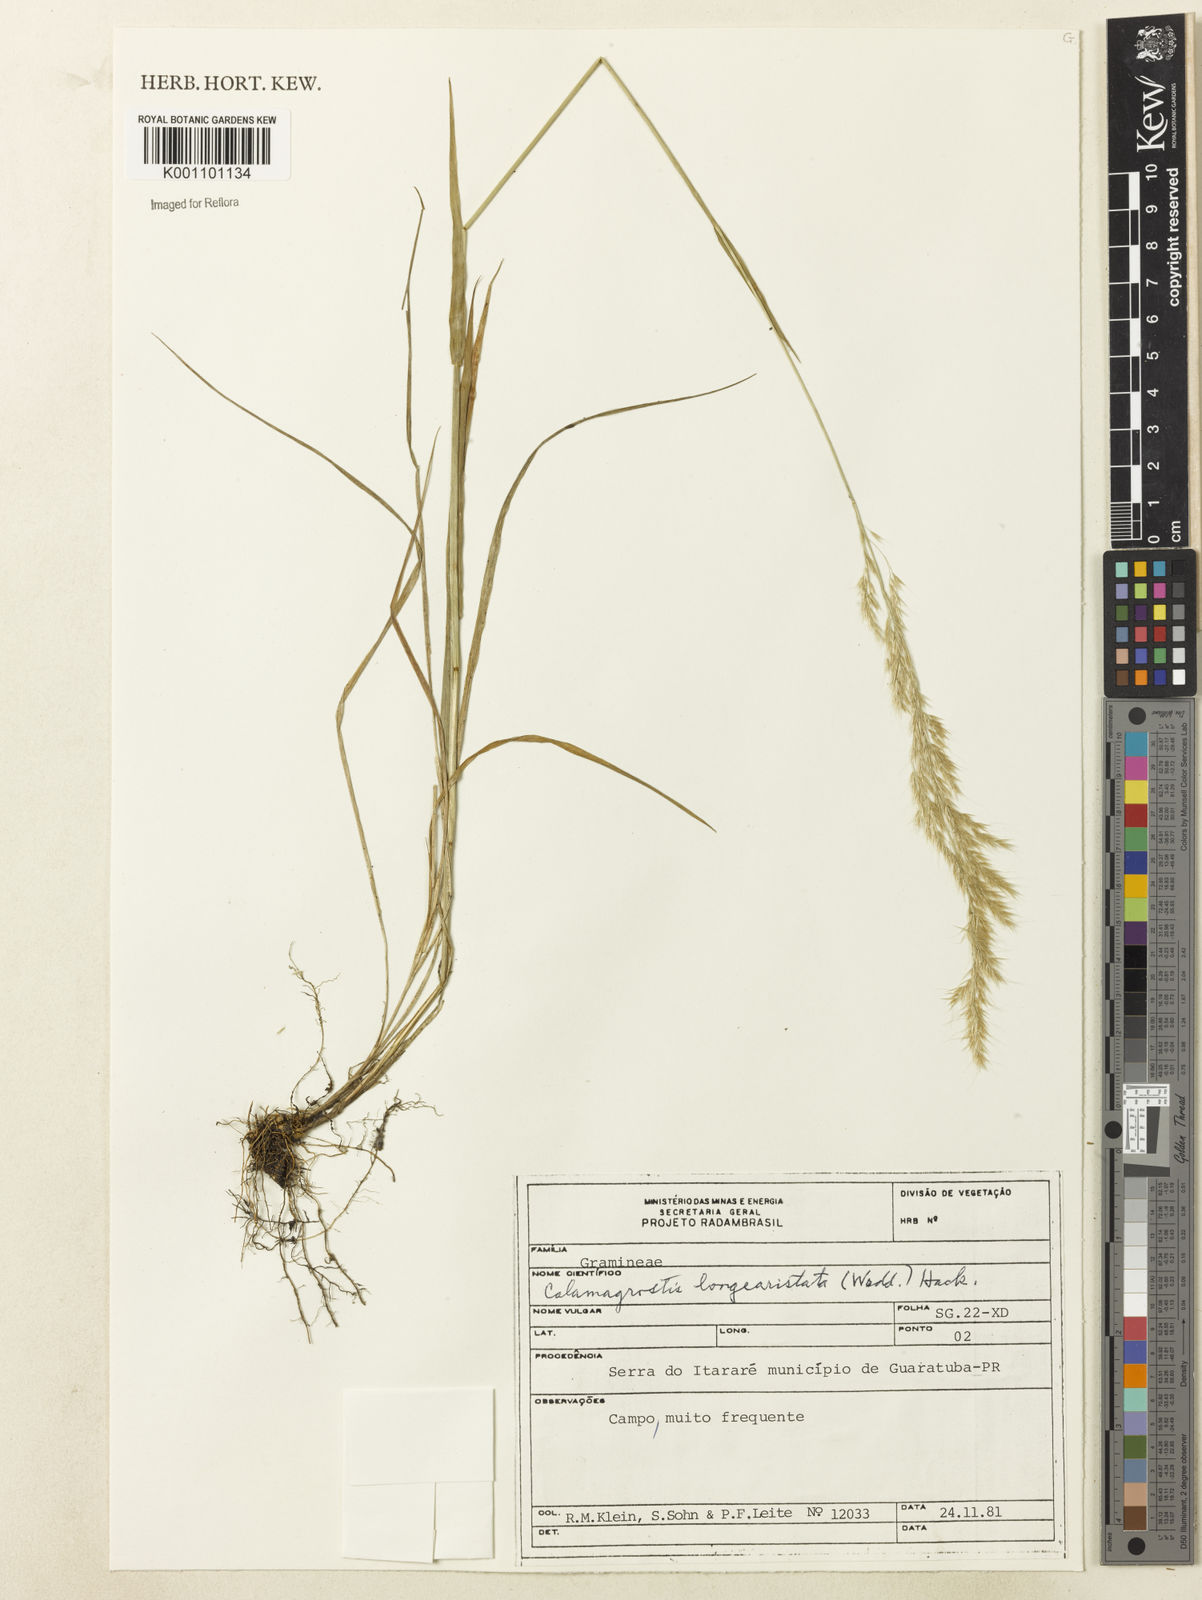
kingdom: Plantae
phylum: Tracheophyta
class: Liliopsida
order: Poales
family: Poaceae
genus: Cinnagrostis
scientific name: Cinnagrostis rupestris
